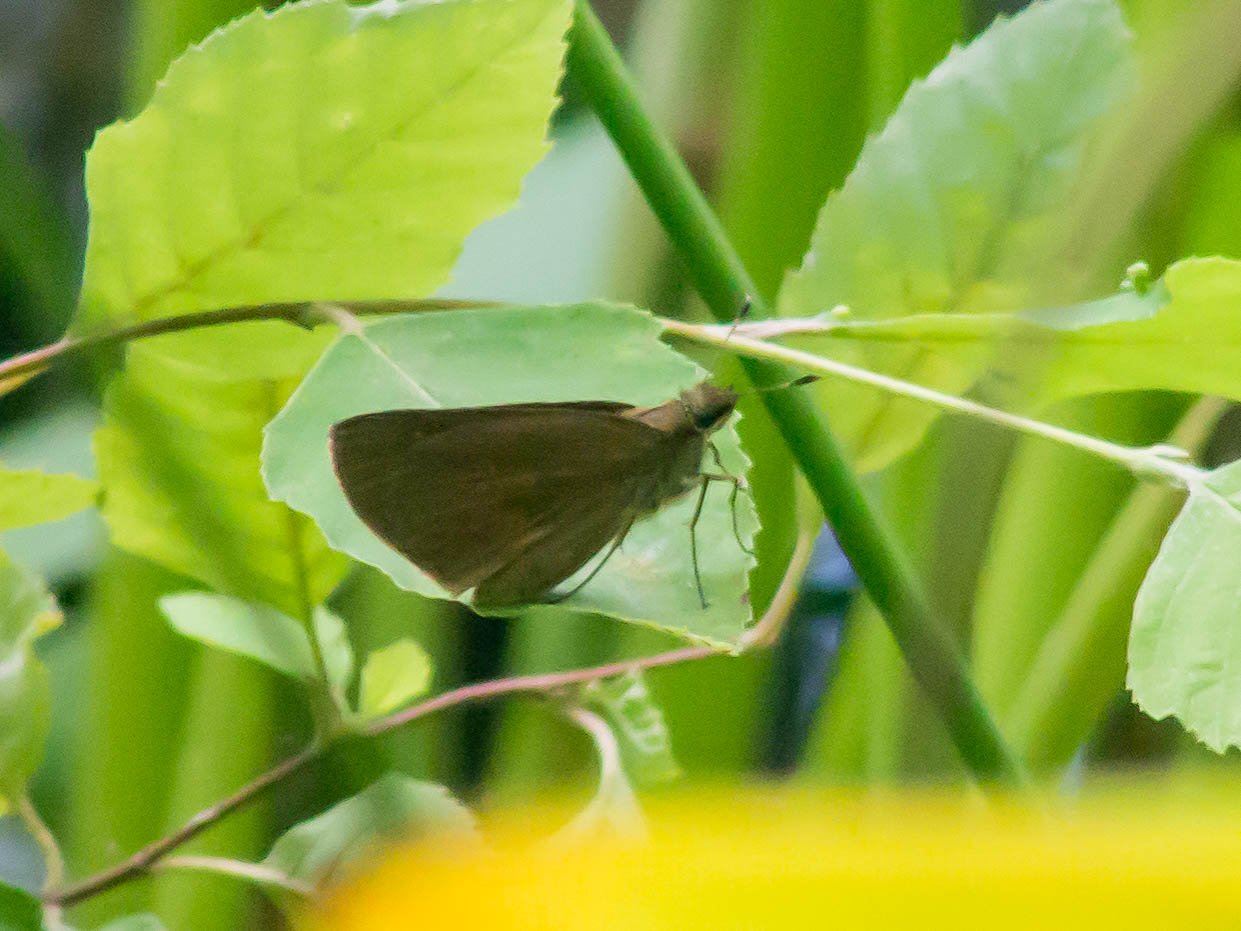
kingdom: Animalia
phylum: Arthropoda
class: Insecta
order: Lepidoptera
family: Hesperiidae
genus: Poanes
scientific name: Poanes viator
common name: Broad-winged Skipper
